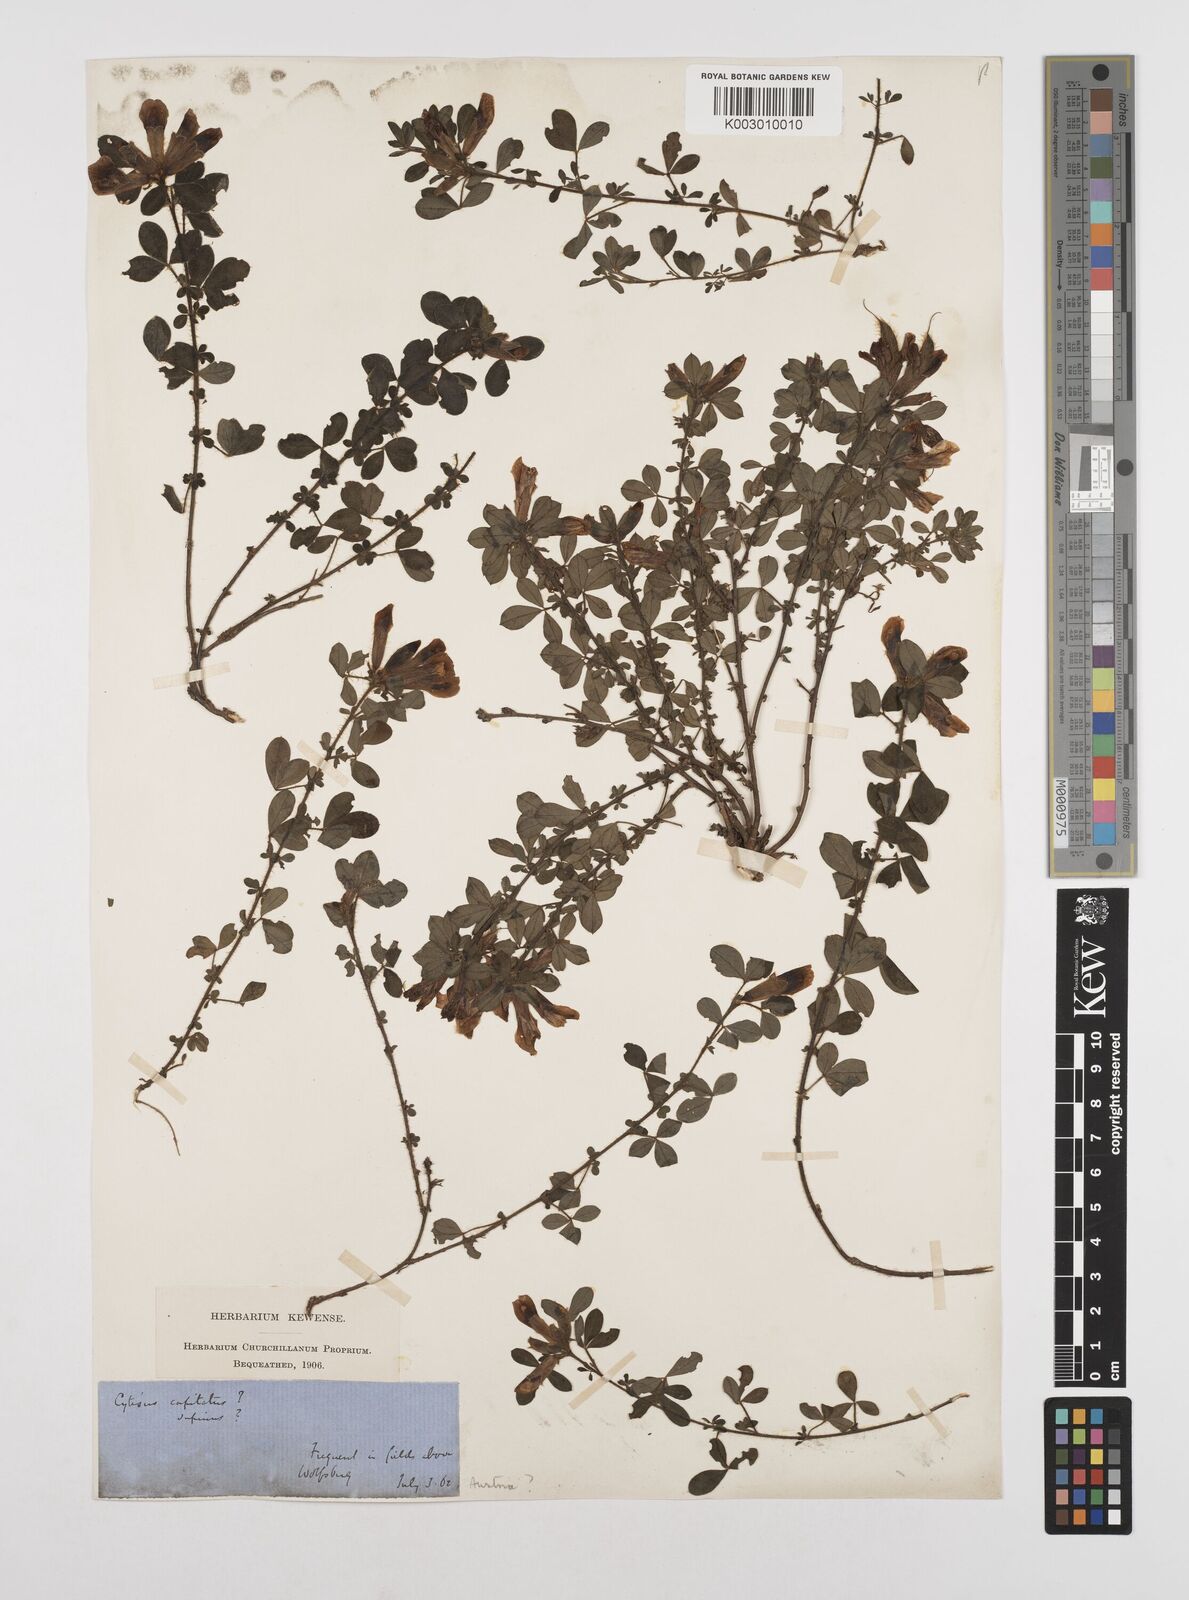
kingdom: Plantae
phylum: Tracheophyta
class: Magnoliopsida
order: Fabales
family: Fabaceae
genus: Chamaecytisus
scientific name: Chamaecytisus hirsutus
